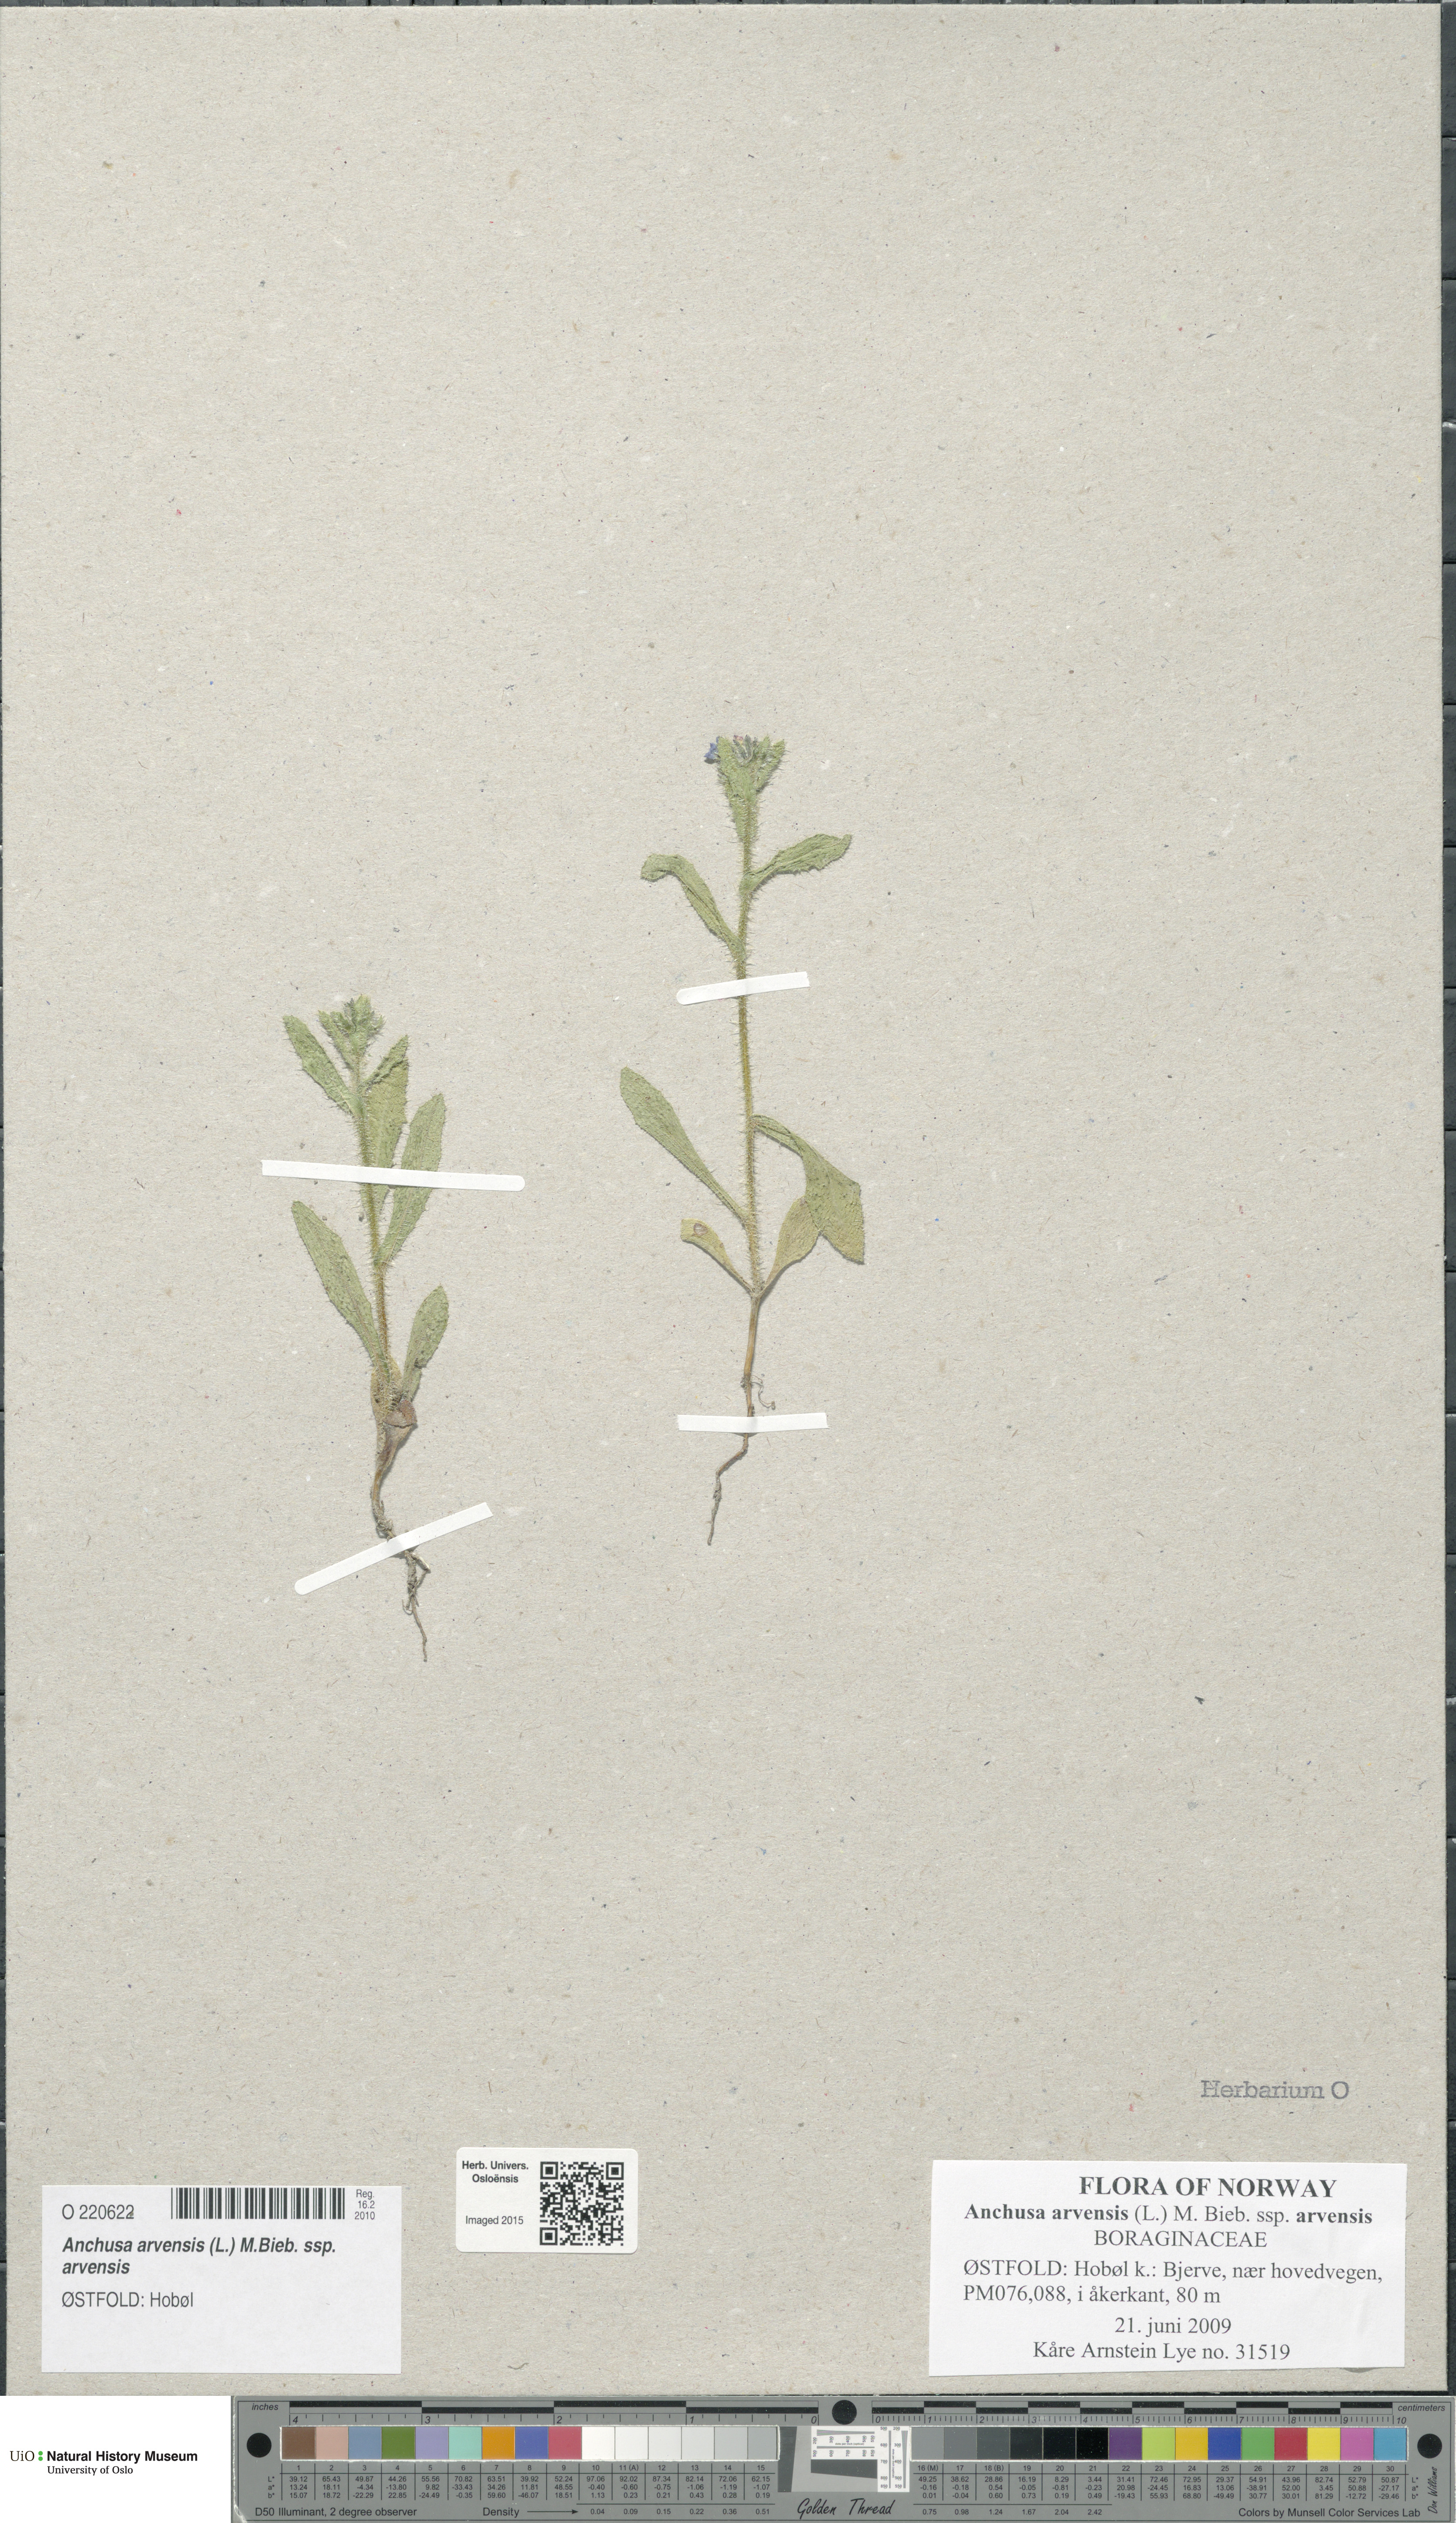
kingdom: Plantae
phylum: Tracheophyta
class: Magnoliopsida
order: Boraginales
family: Boraginaceae
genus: Lycopsis
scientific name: Lycopsis arvensis
